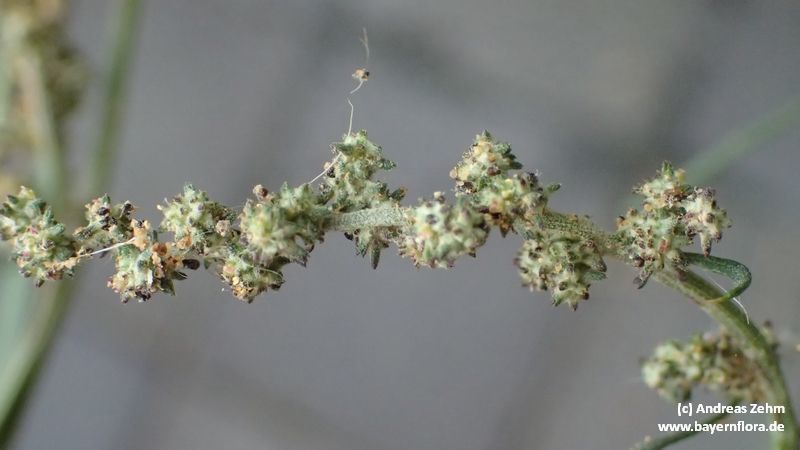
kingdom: Plantae
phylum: Tracheophyta
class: Magnoliopsida
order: Caryophyllales
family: Amaranthaceae
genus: Atriplex
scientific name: Atriplex patula
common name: Common orache
